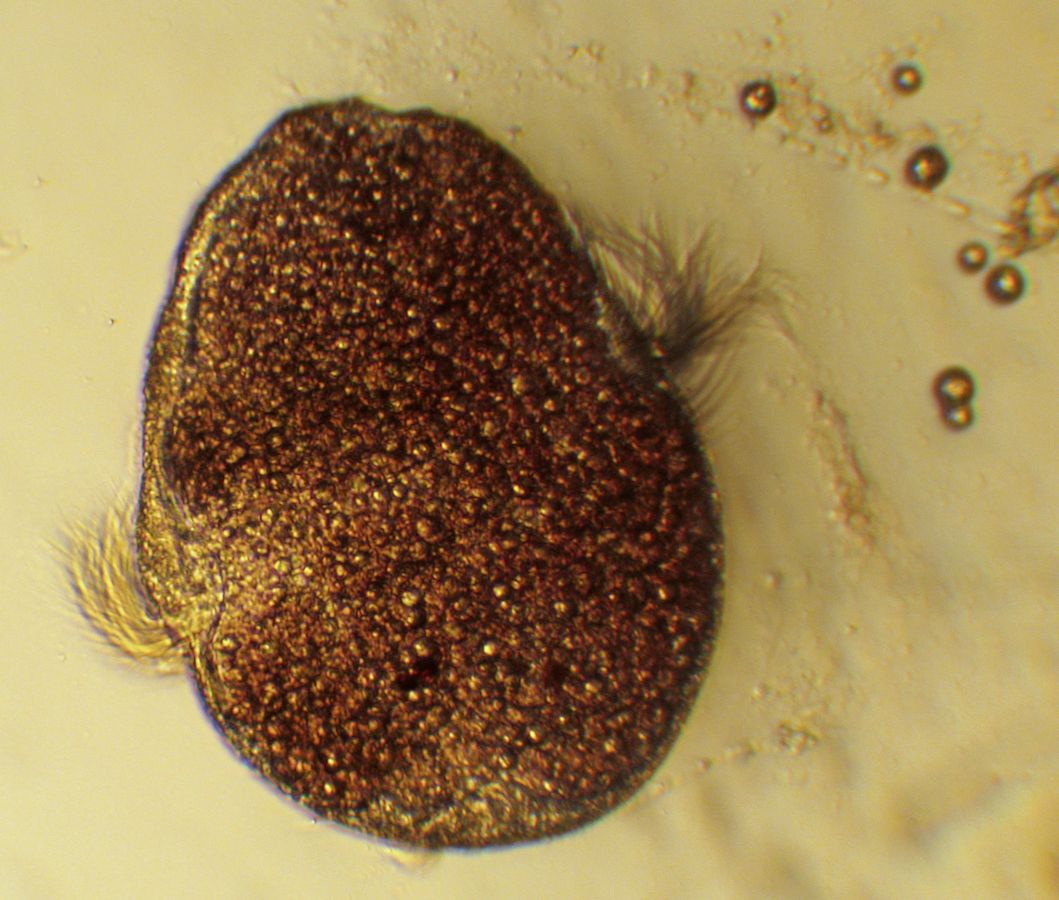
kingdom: Animalia
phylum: Annelida
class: Polychaeta
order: Phyllodocida
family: Phyllodocidae
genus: Phyllodoce
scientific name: Phyllodoce maculata
